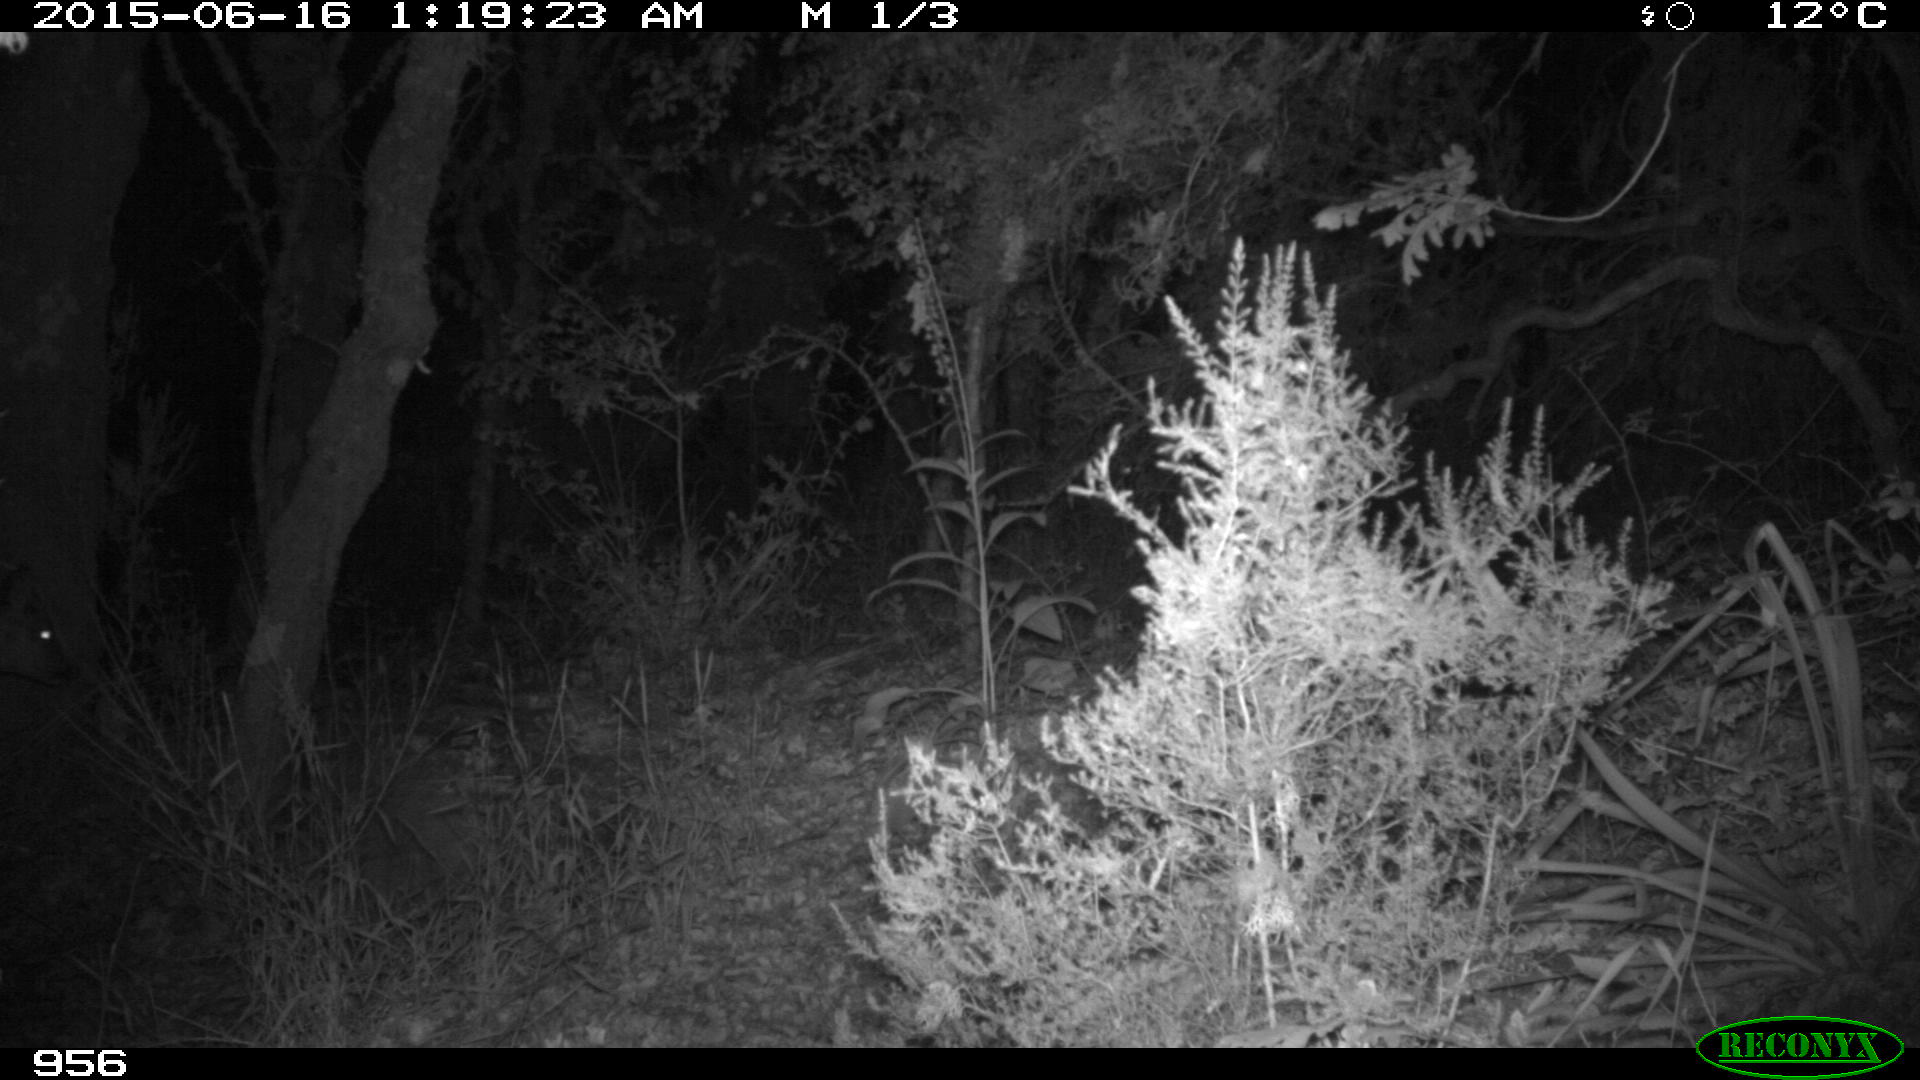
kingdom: Animalia
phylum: Chordata
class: Mammalia
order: Artiodactyla
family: Cervidae
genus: Capreolus
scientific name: Capreolus capreolus
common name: Western roe deer
